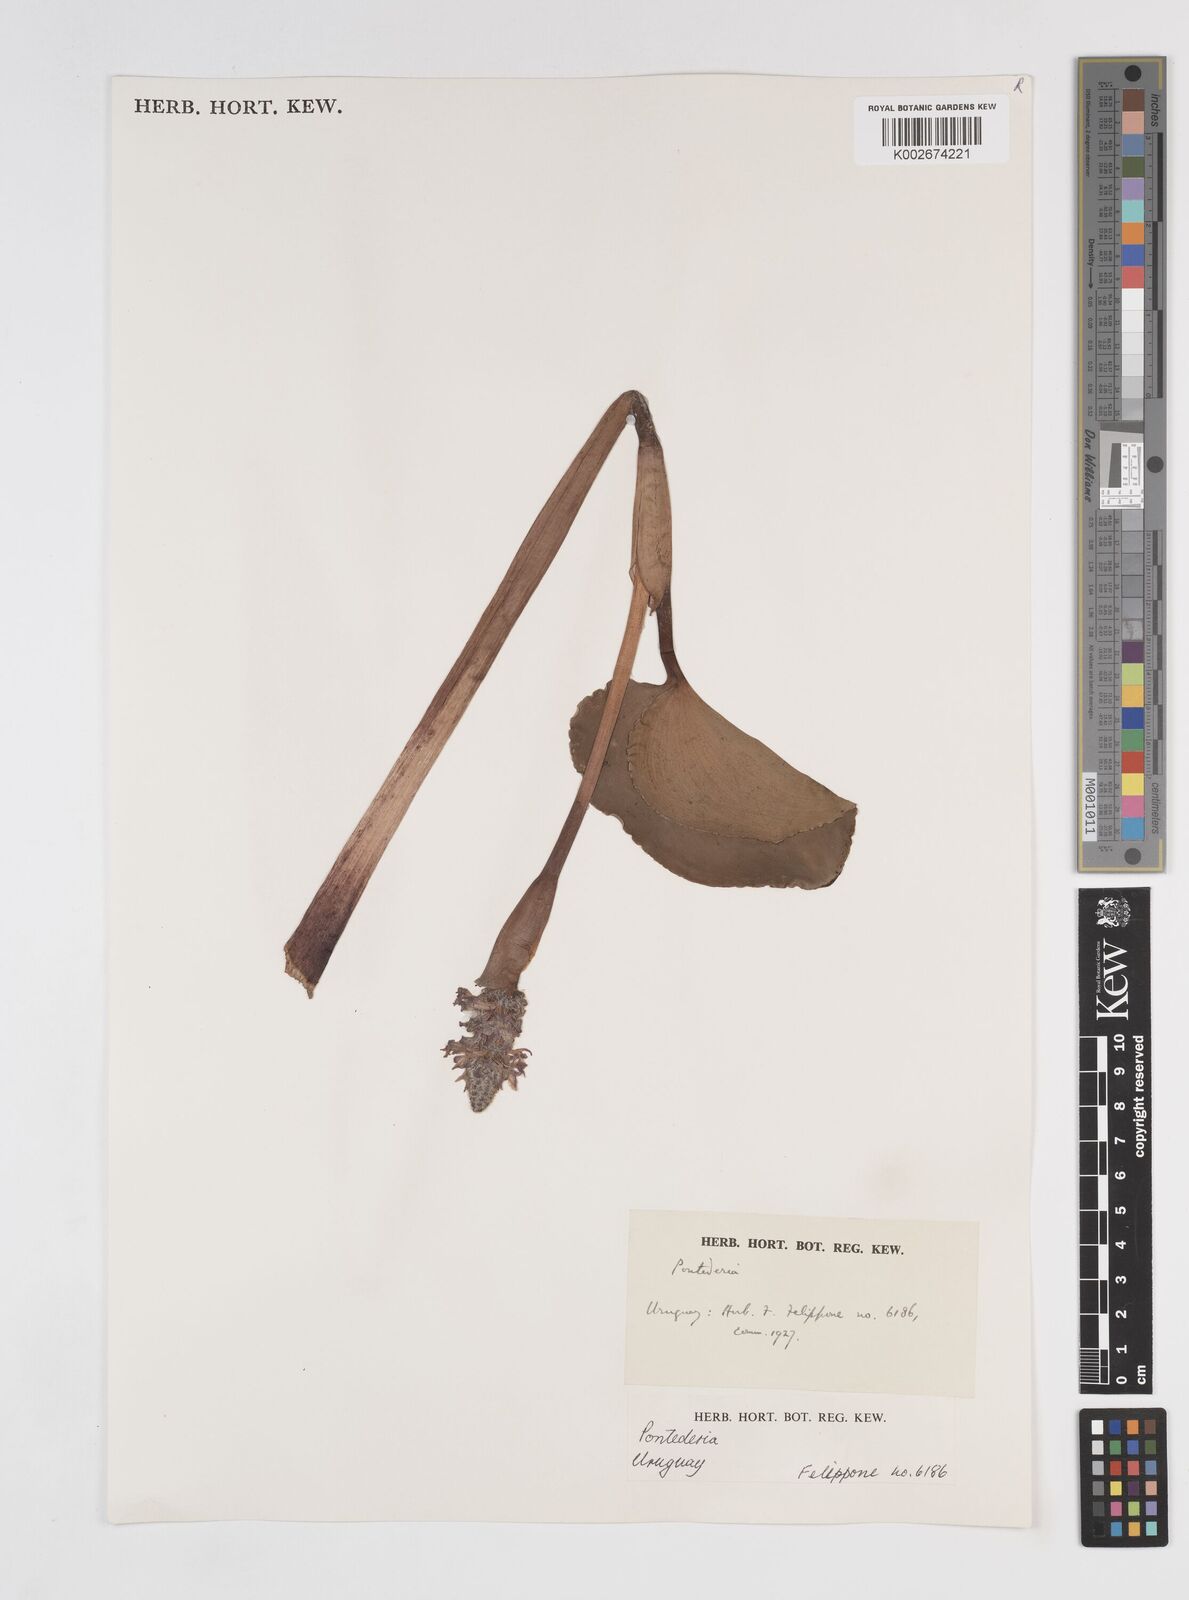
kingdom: Plantae
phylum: Tracheophyta
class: Liliopsida
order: Commelinales
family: Pontederiaceae
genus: Pontederia
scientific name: Pontederia
